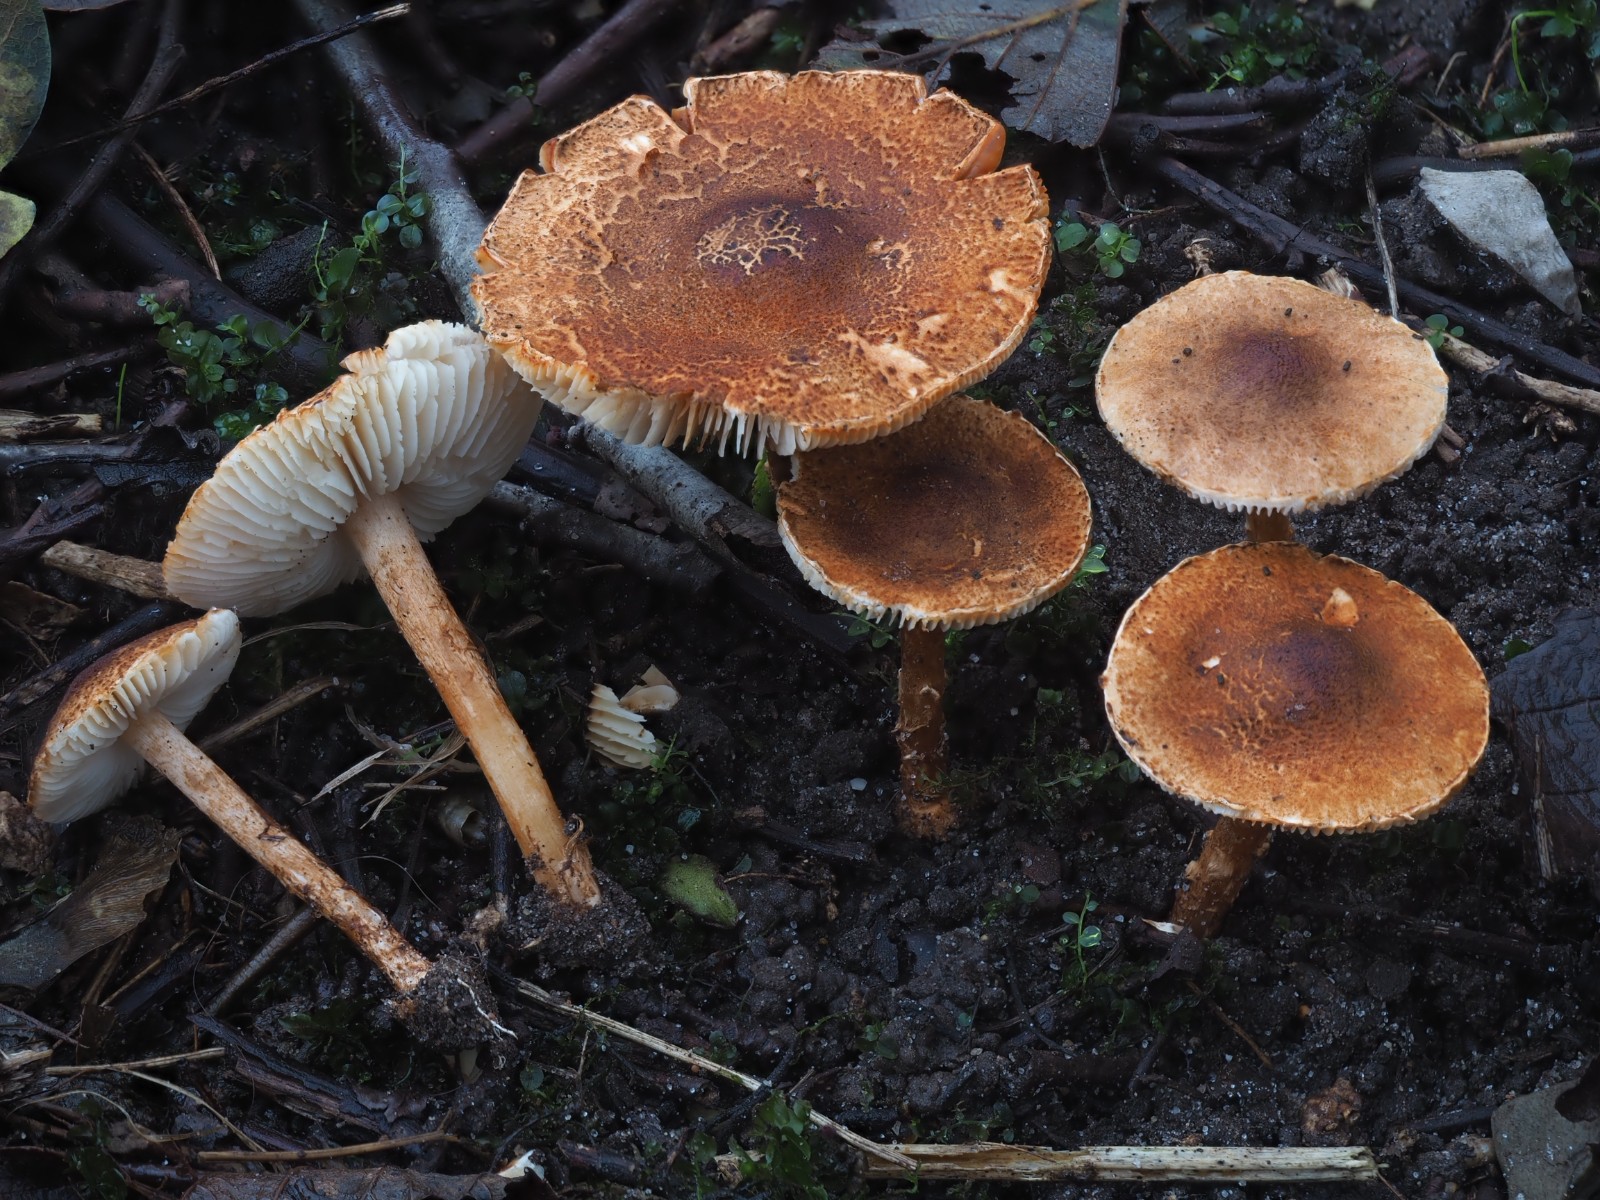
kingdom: Fungi
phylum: Basidiomycota
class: Agaricomycetes
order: Agaricales
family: Agaricaceae
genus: Lepiota
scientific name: Lepiota castanea
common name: kastaniebrun parasolhat
